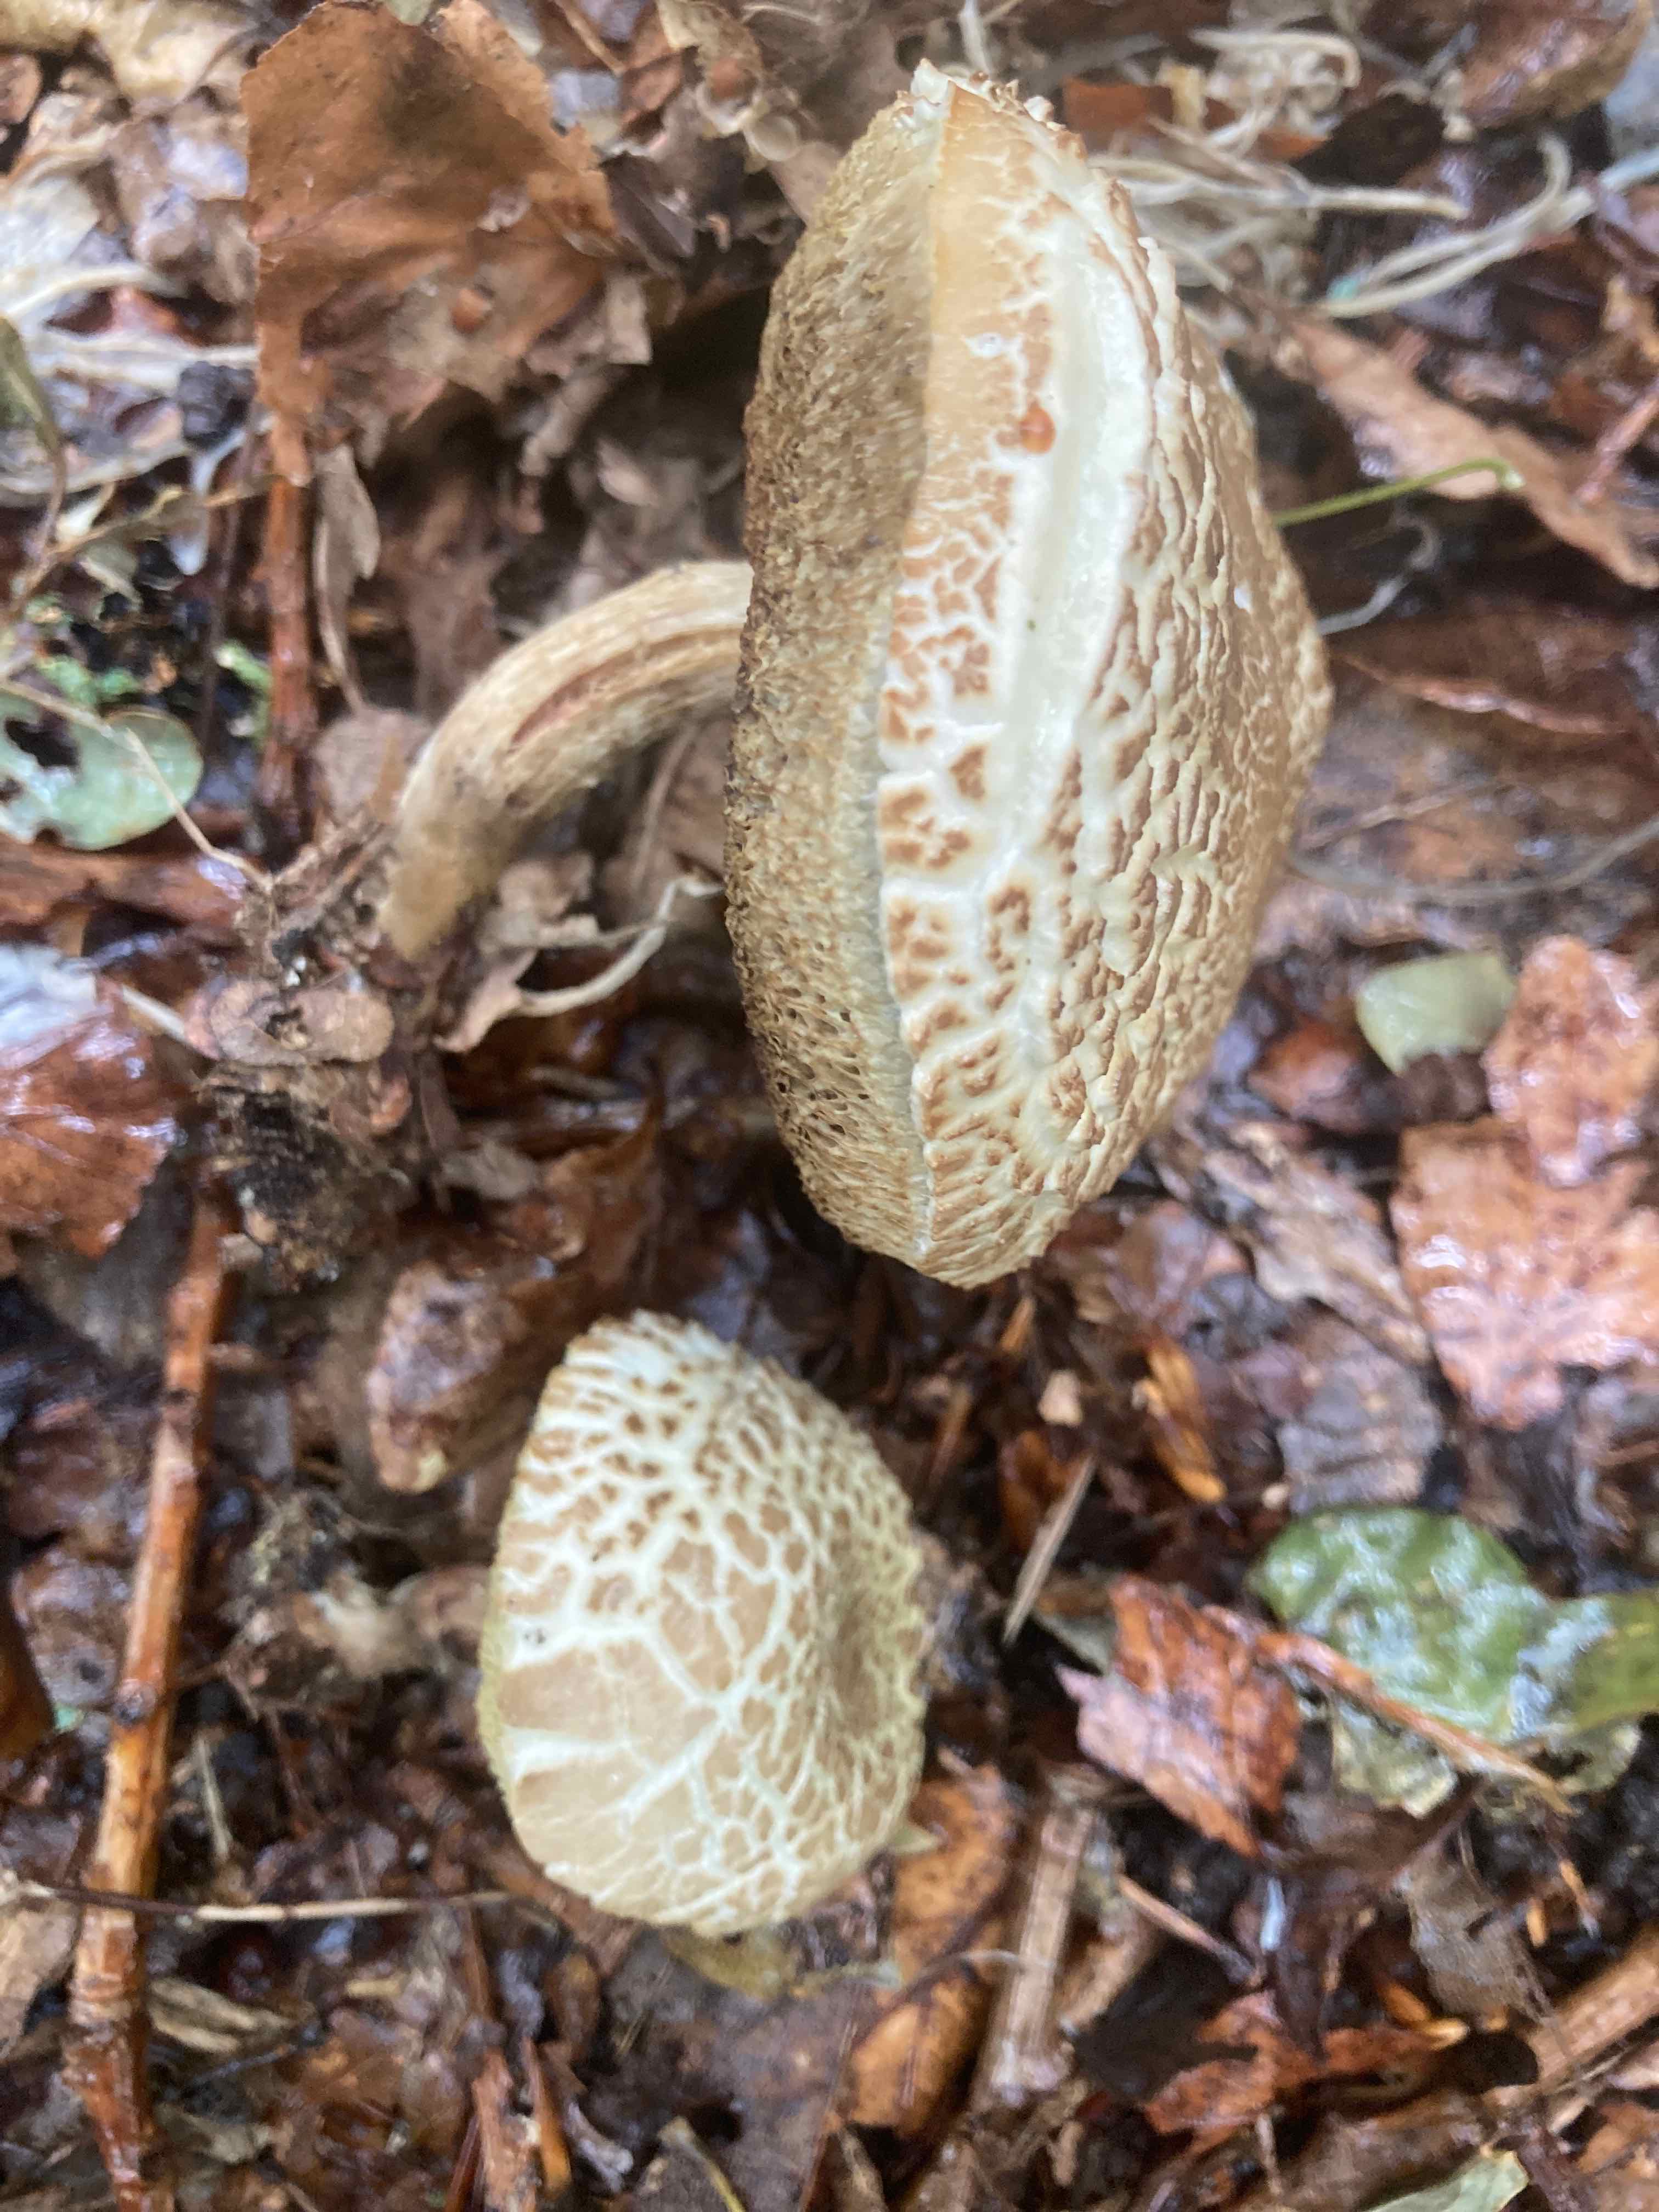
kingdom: Fungi
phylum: Basidiomycota
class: Agaricomycetes
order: Boletales
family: Boletaceae
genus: Xerocomellus
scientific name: Xerocomellus porosporus
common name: hvidsprukken rørhat
